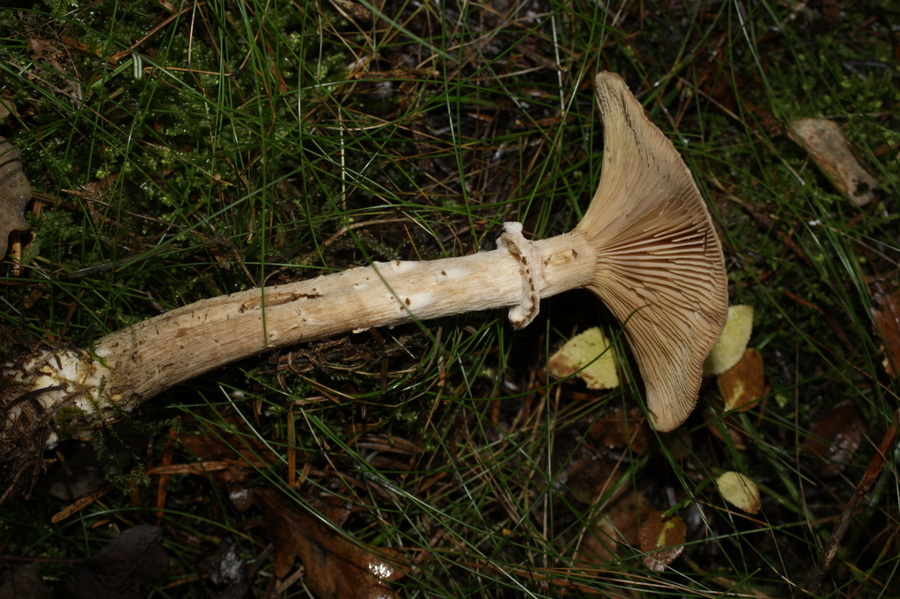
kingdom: Fungi
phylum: Basidiomycota
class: Agaricomycetes
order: Agaricales
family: Physalacriaceae
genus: Armillaria
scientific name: Armillaria ostoyae
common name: mørk honningsvamp
